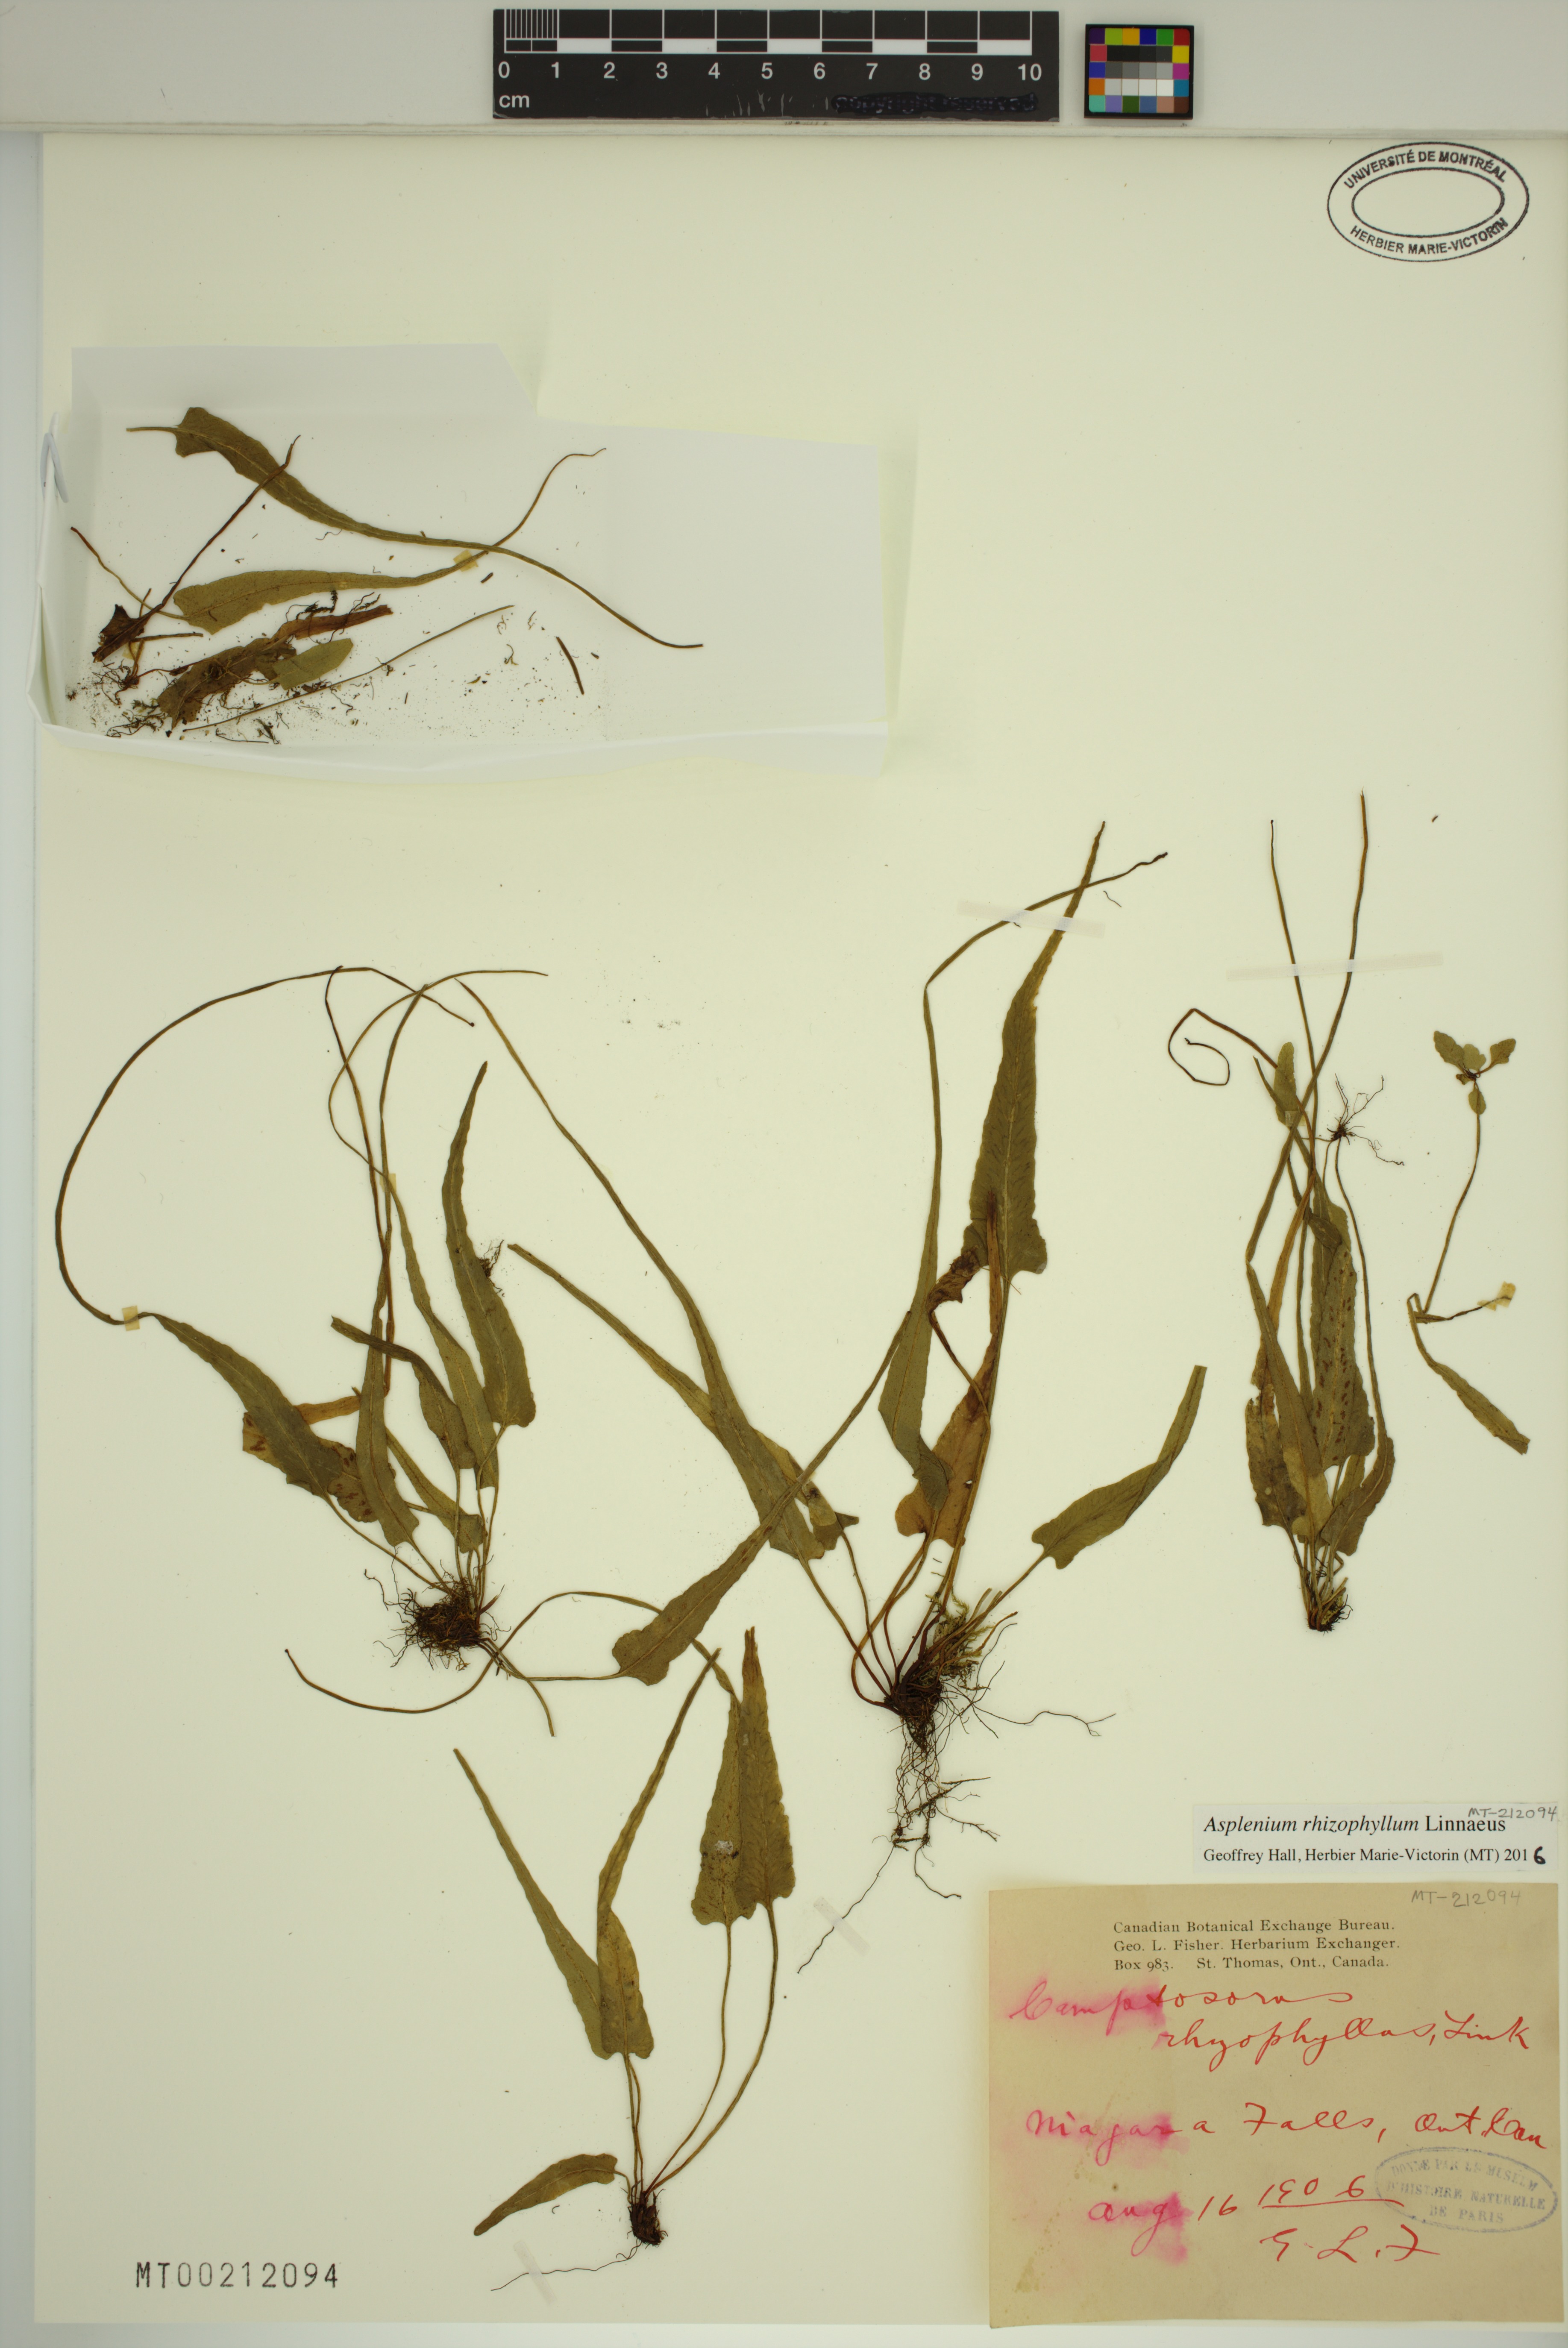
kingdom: Plantae
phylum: Tracheophyta
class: Polypodiopsida
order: Polypodiales
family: Aspleniaceae
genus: Asplenium
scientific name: Asplenium rhizophyllum
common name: Walking fern
